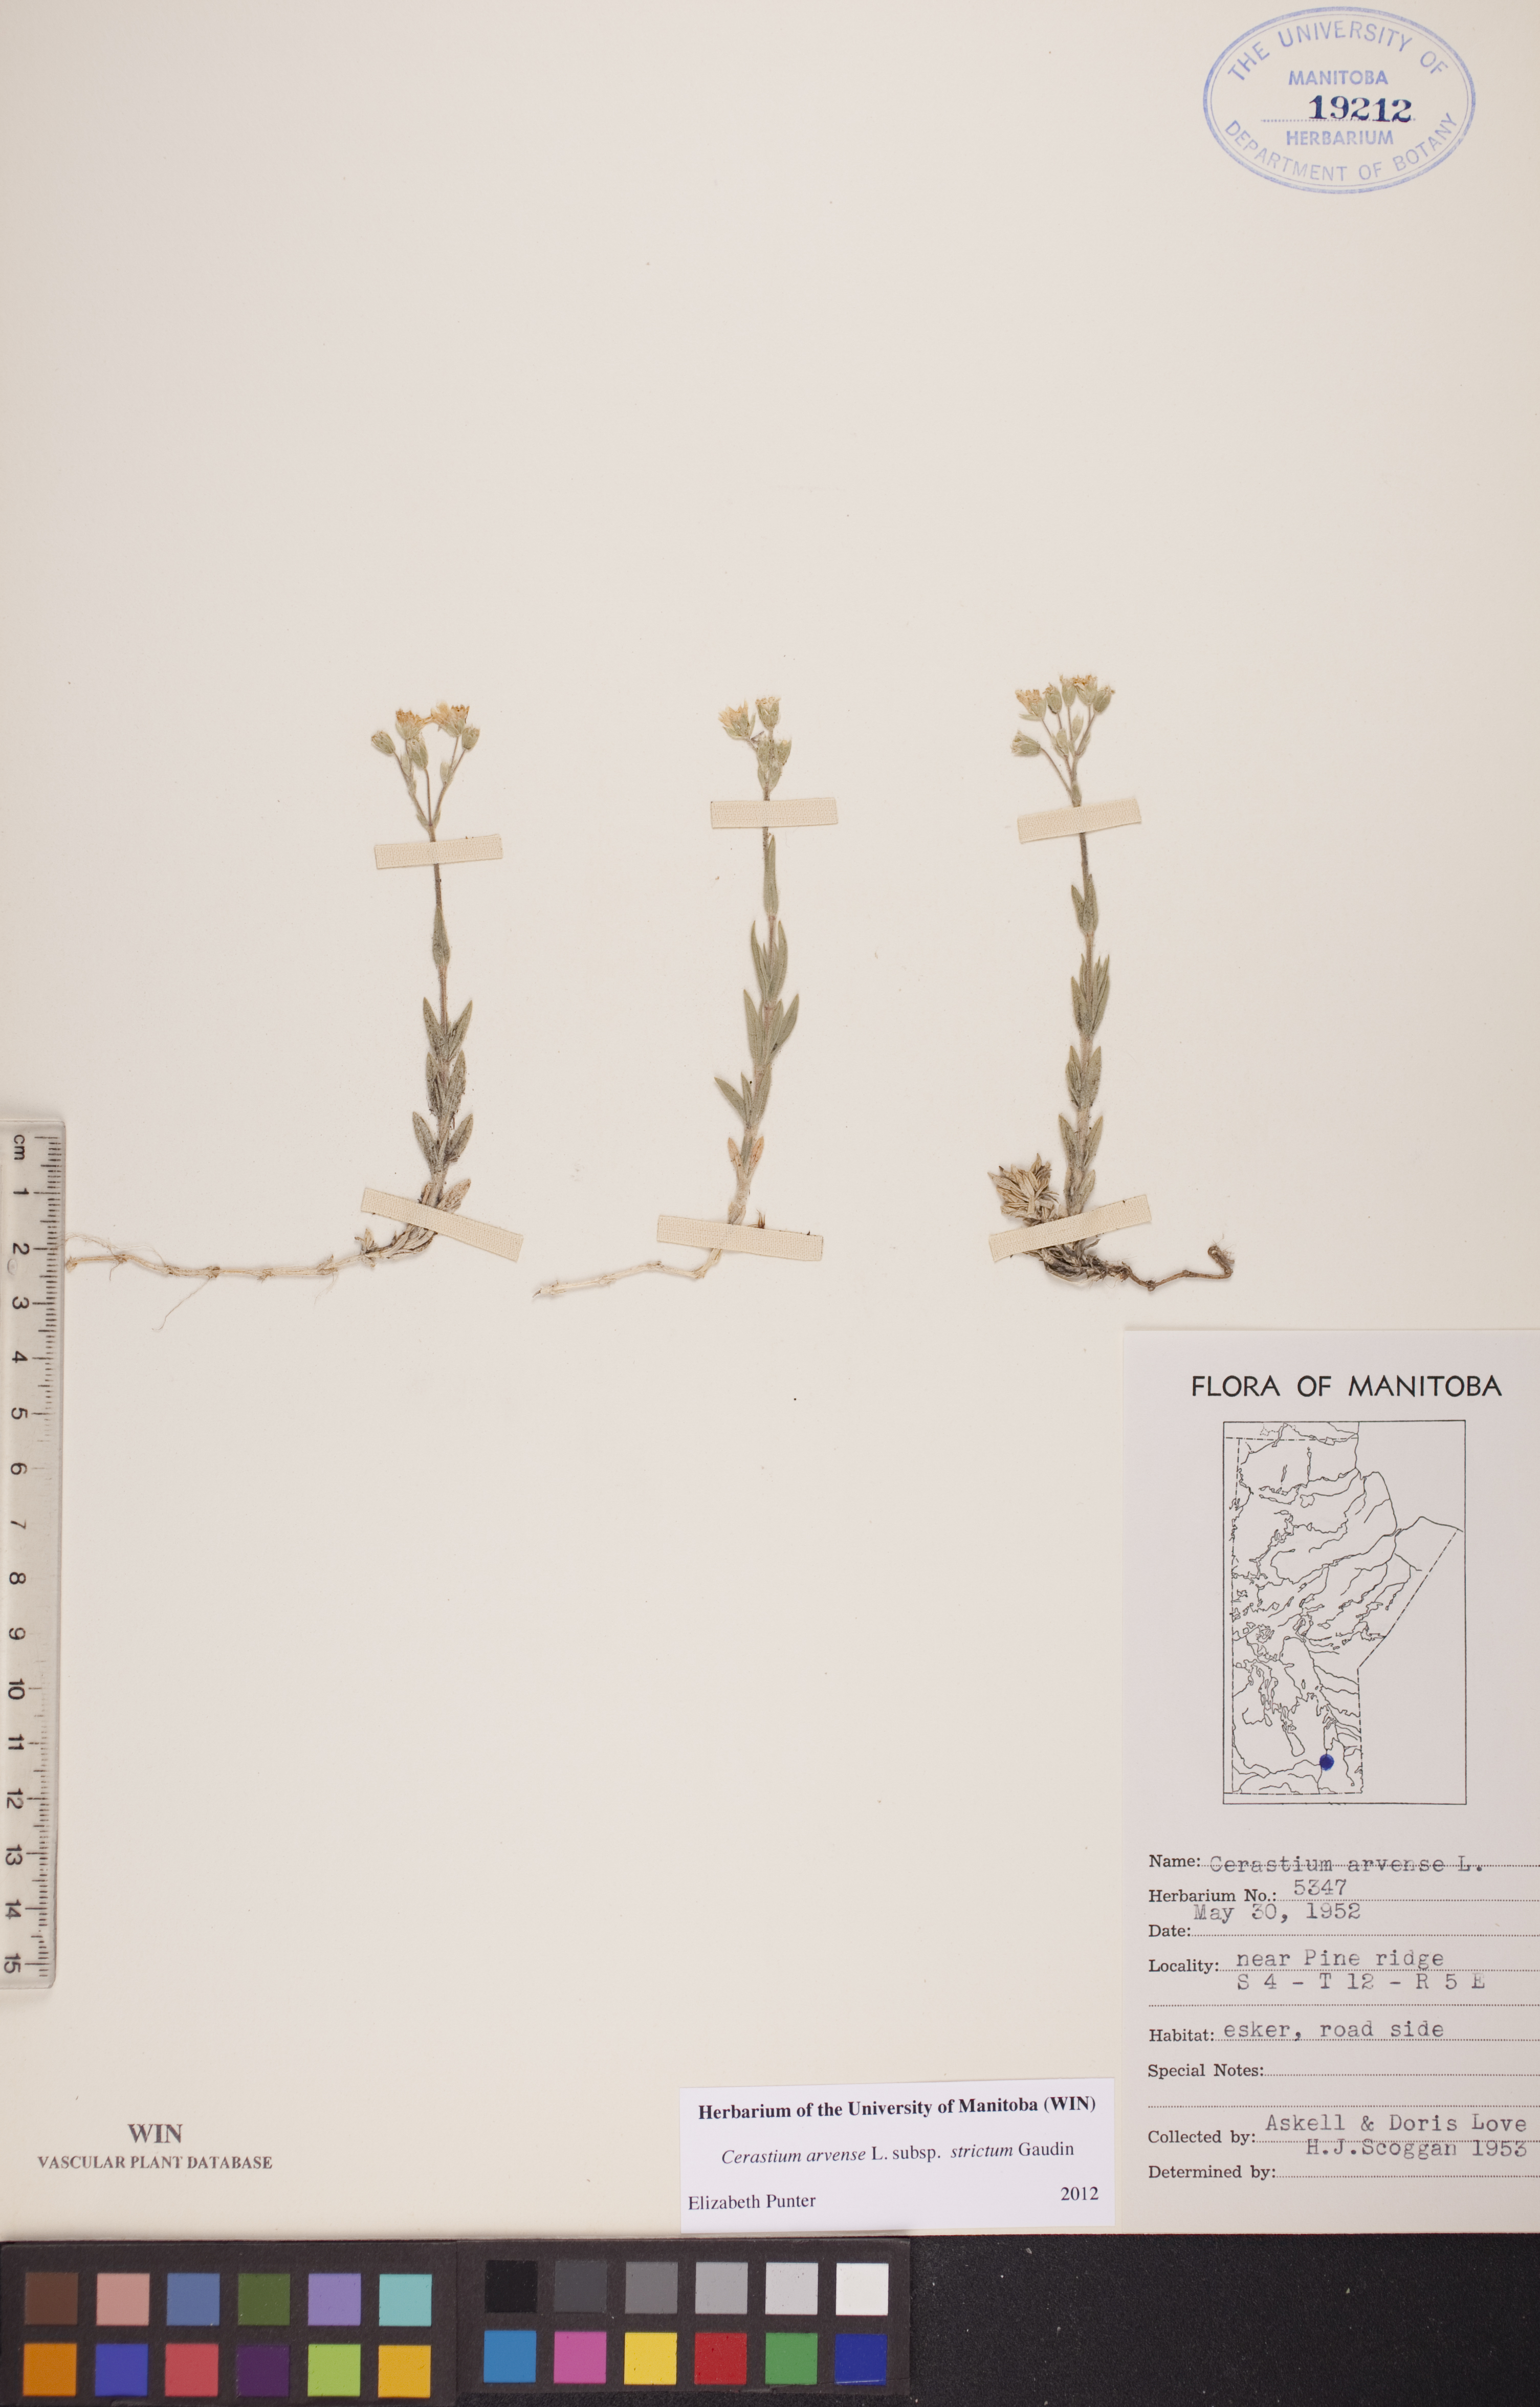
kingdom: Plantae
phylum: Tracheophyta
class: Magnoliopsida
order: Caryophyllales
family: Caryophyllaceae
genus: Cerastium
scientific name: Cerastium elongatum
